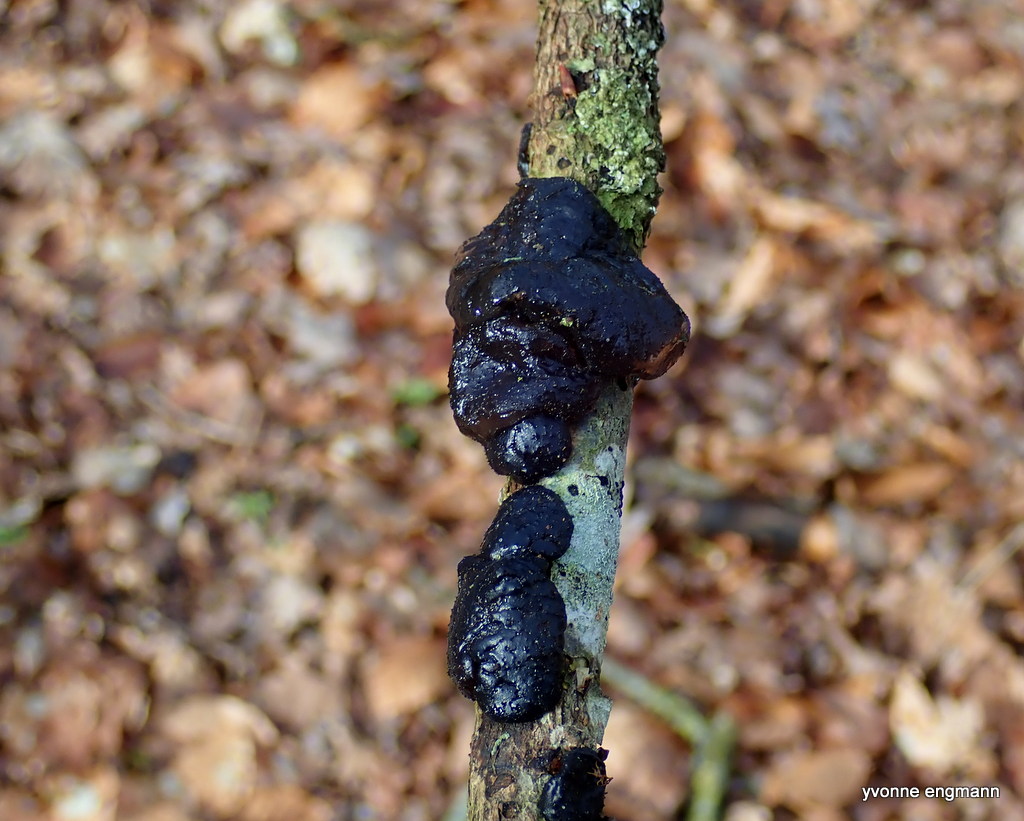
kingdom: Fungi
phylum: Basidiomycota
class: Agaricomycetes
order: Auriculariales
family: Auriculariaceae
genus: Exidia
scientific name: Exidia glandulosa
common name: ege-bævretop
